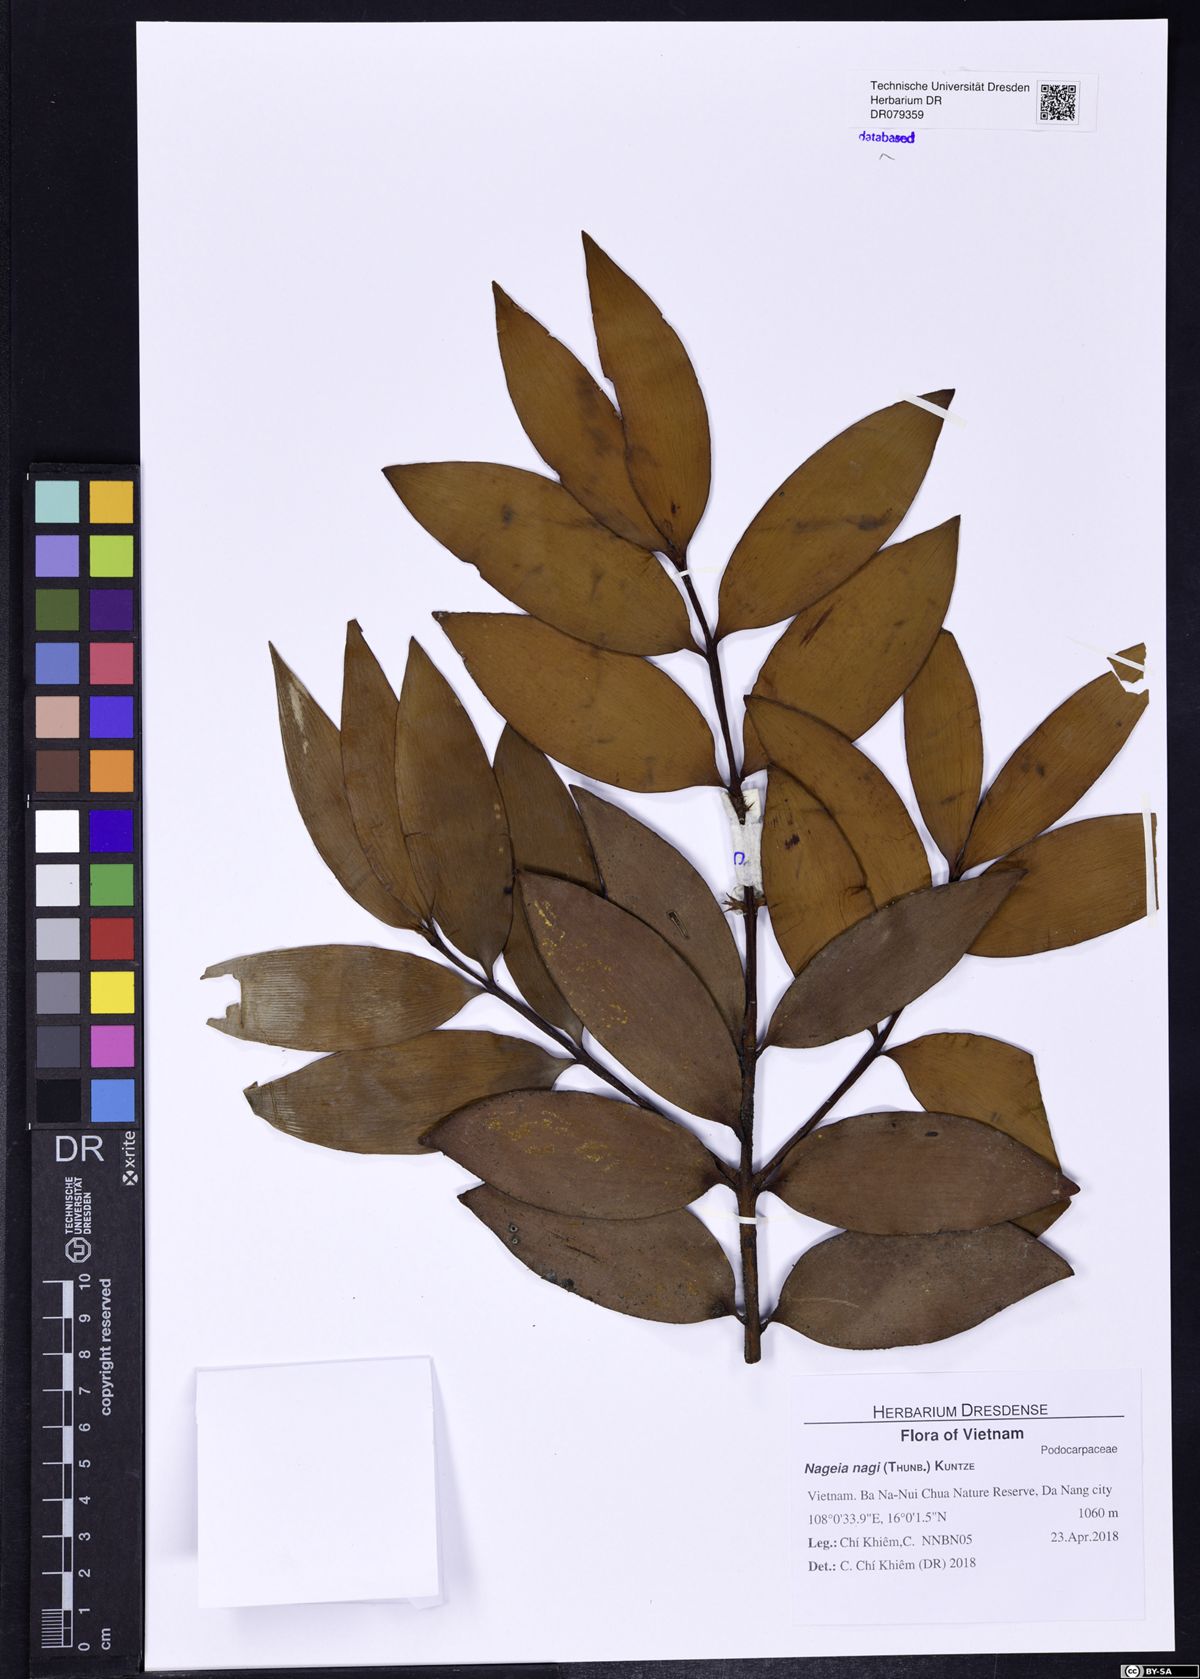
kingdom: Plantae
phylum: Tracheophyta
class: Pinopsida
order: Pinales
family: Podocarpaceae
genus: Nageia
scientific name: Nageia nagi
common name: Kaphal
